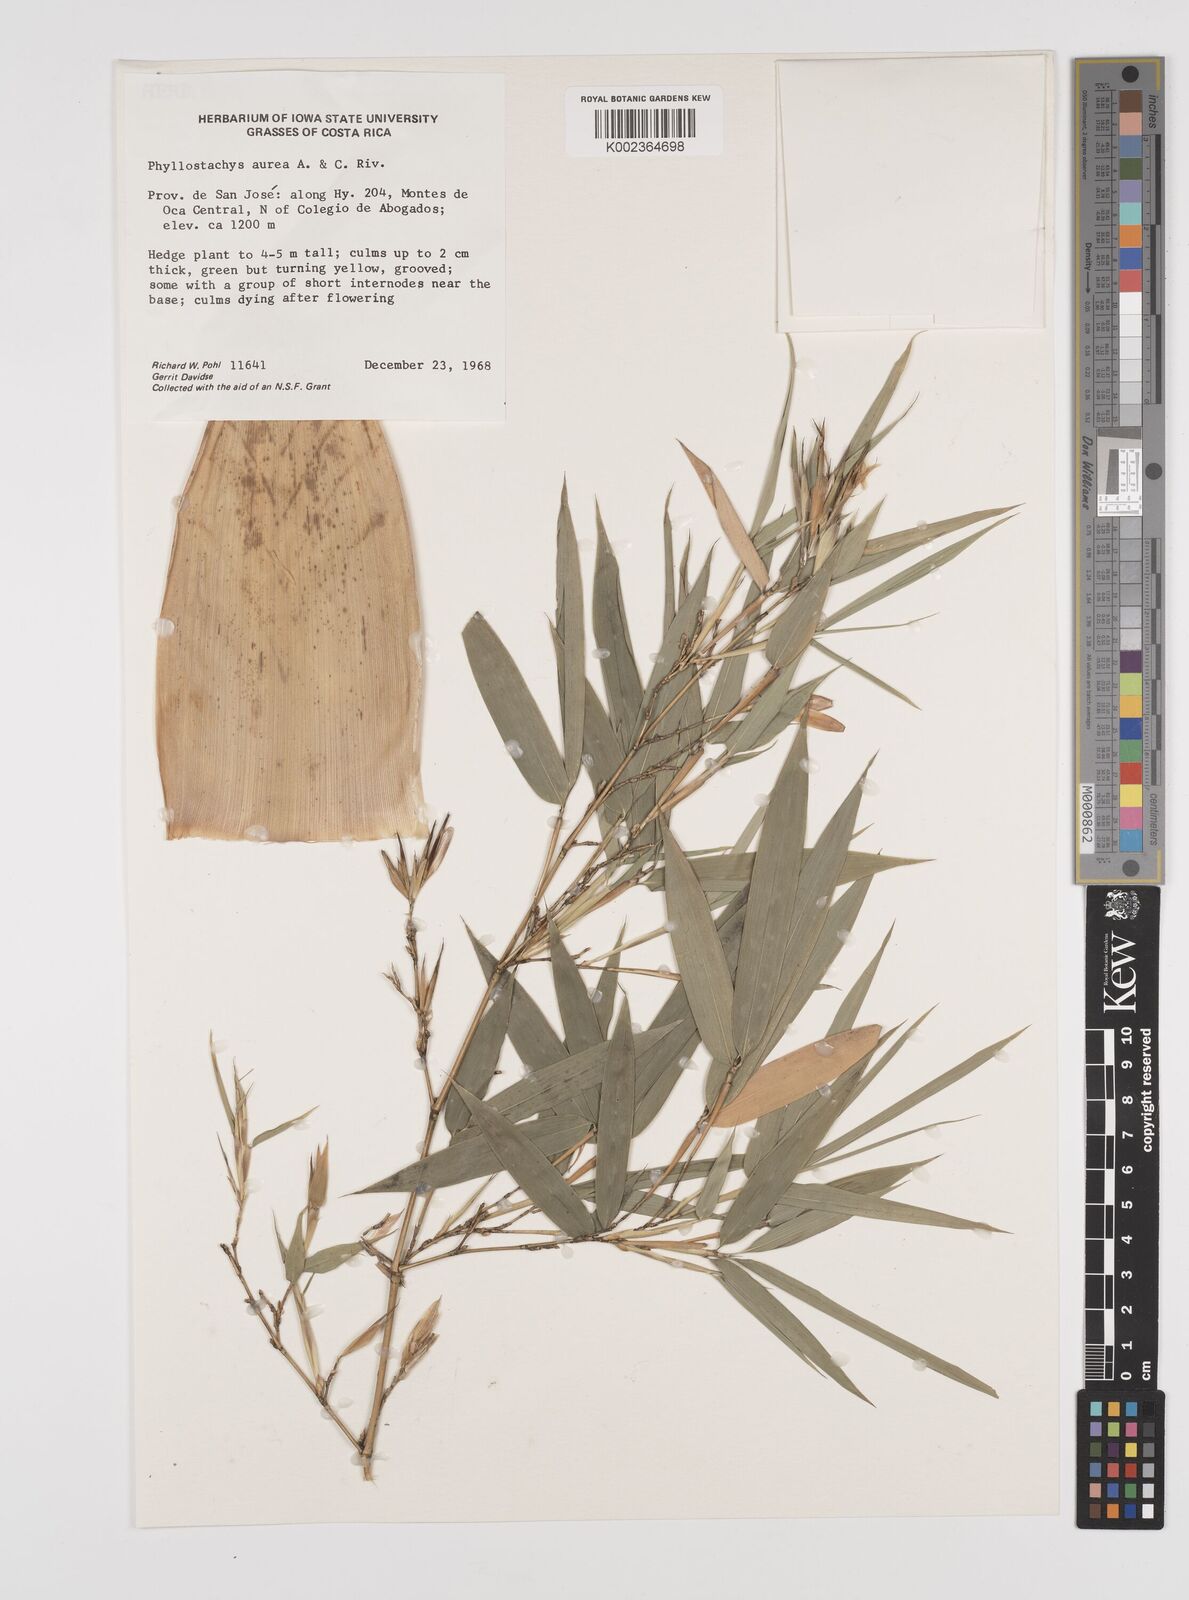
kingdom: Plantae
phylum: Tracheophyta
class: Liliopsida
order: Poales
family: Poaceae
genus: Phyllostachys
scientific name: Phyllostachys aurea
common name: Golden bamboo
